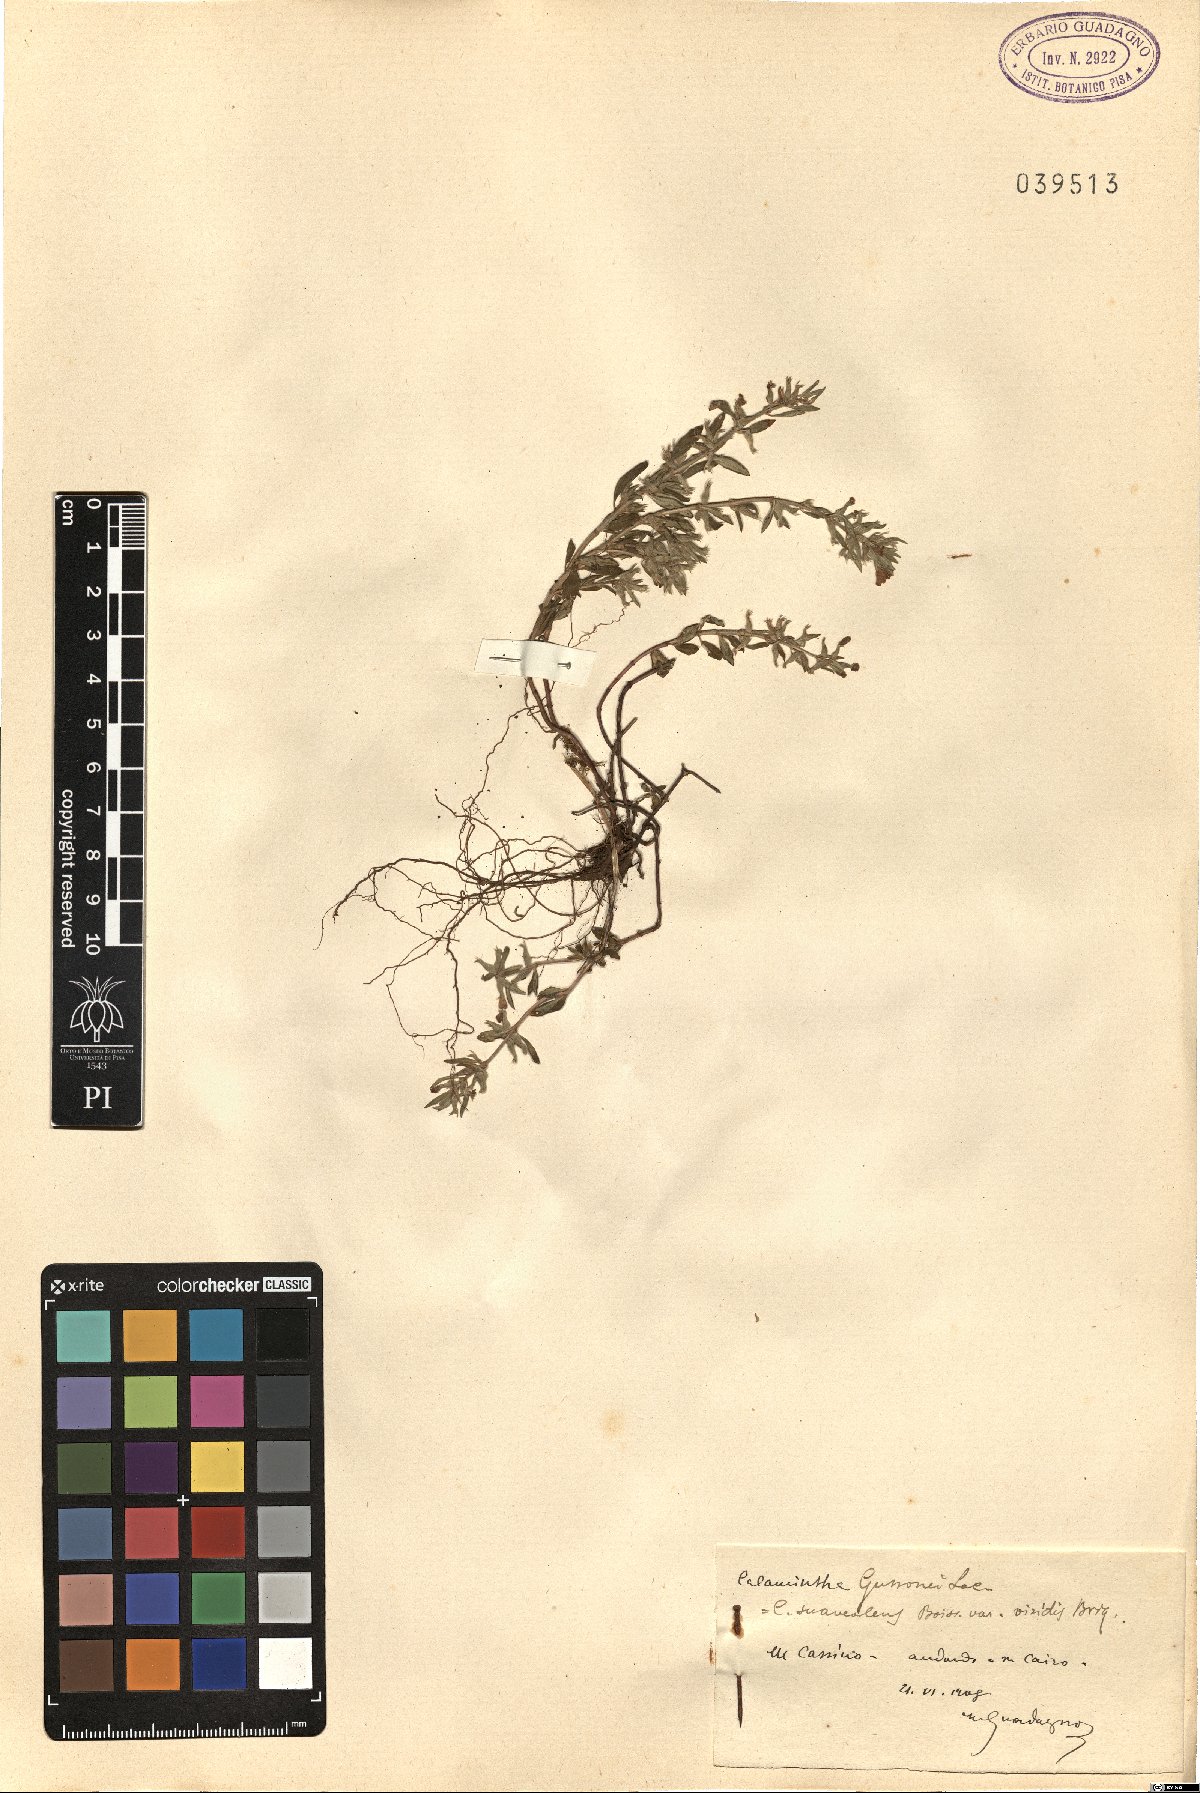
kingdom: Plantae
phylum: Tracheophyta
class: Magnoliopsida
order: Lamiales
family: Lamiaceae
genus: Clinopodium
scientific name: Clinopodium suaveolens
